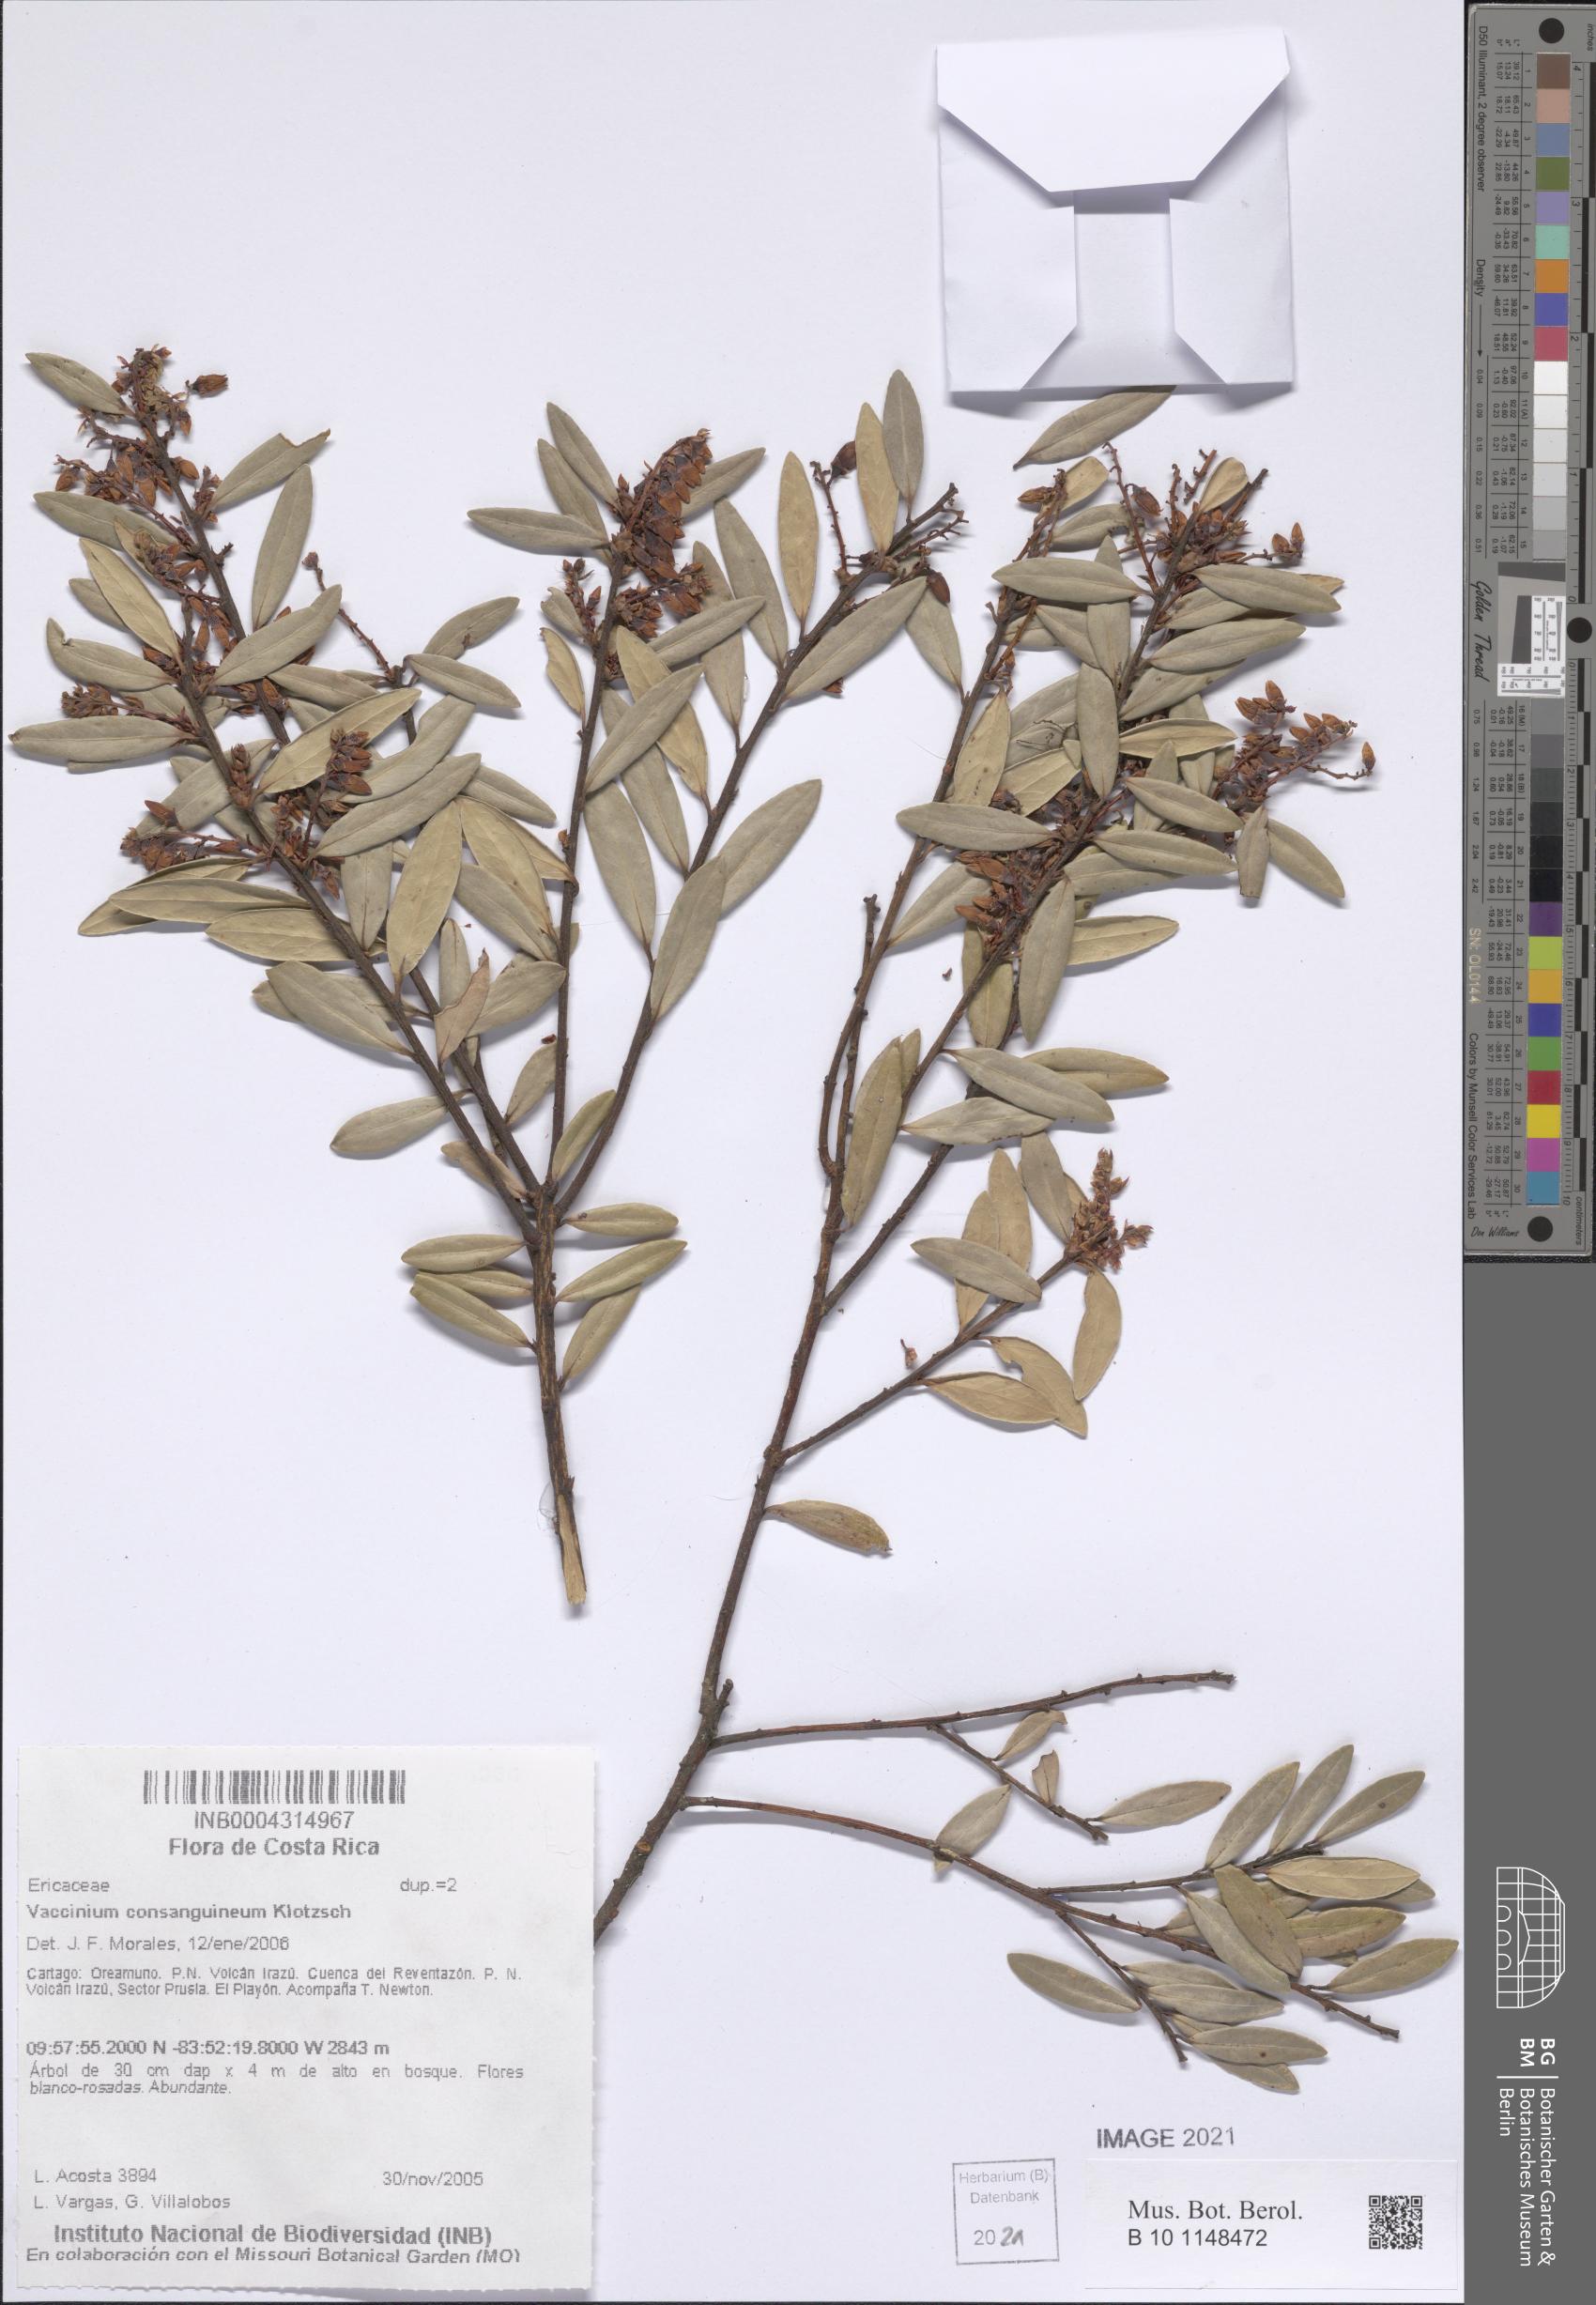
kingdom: Plantae
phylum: Tracheophyta
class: Magnoliopsida
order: Ericales
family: Ericaceae
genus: Vaccinium
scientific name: Vaccinium consanguineum
